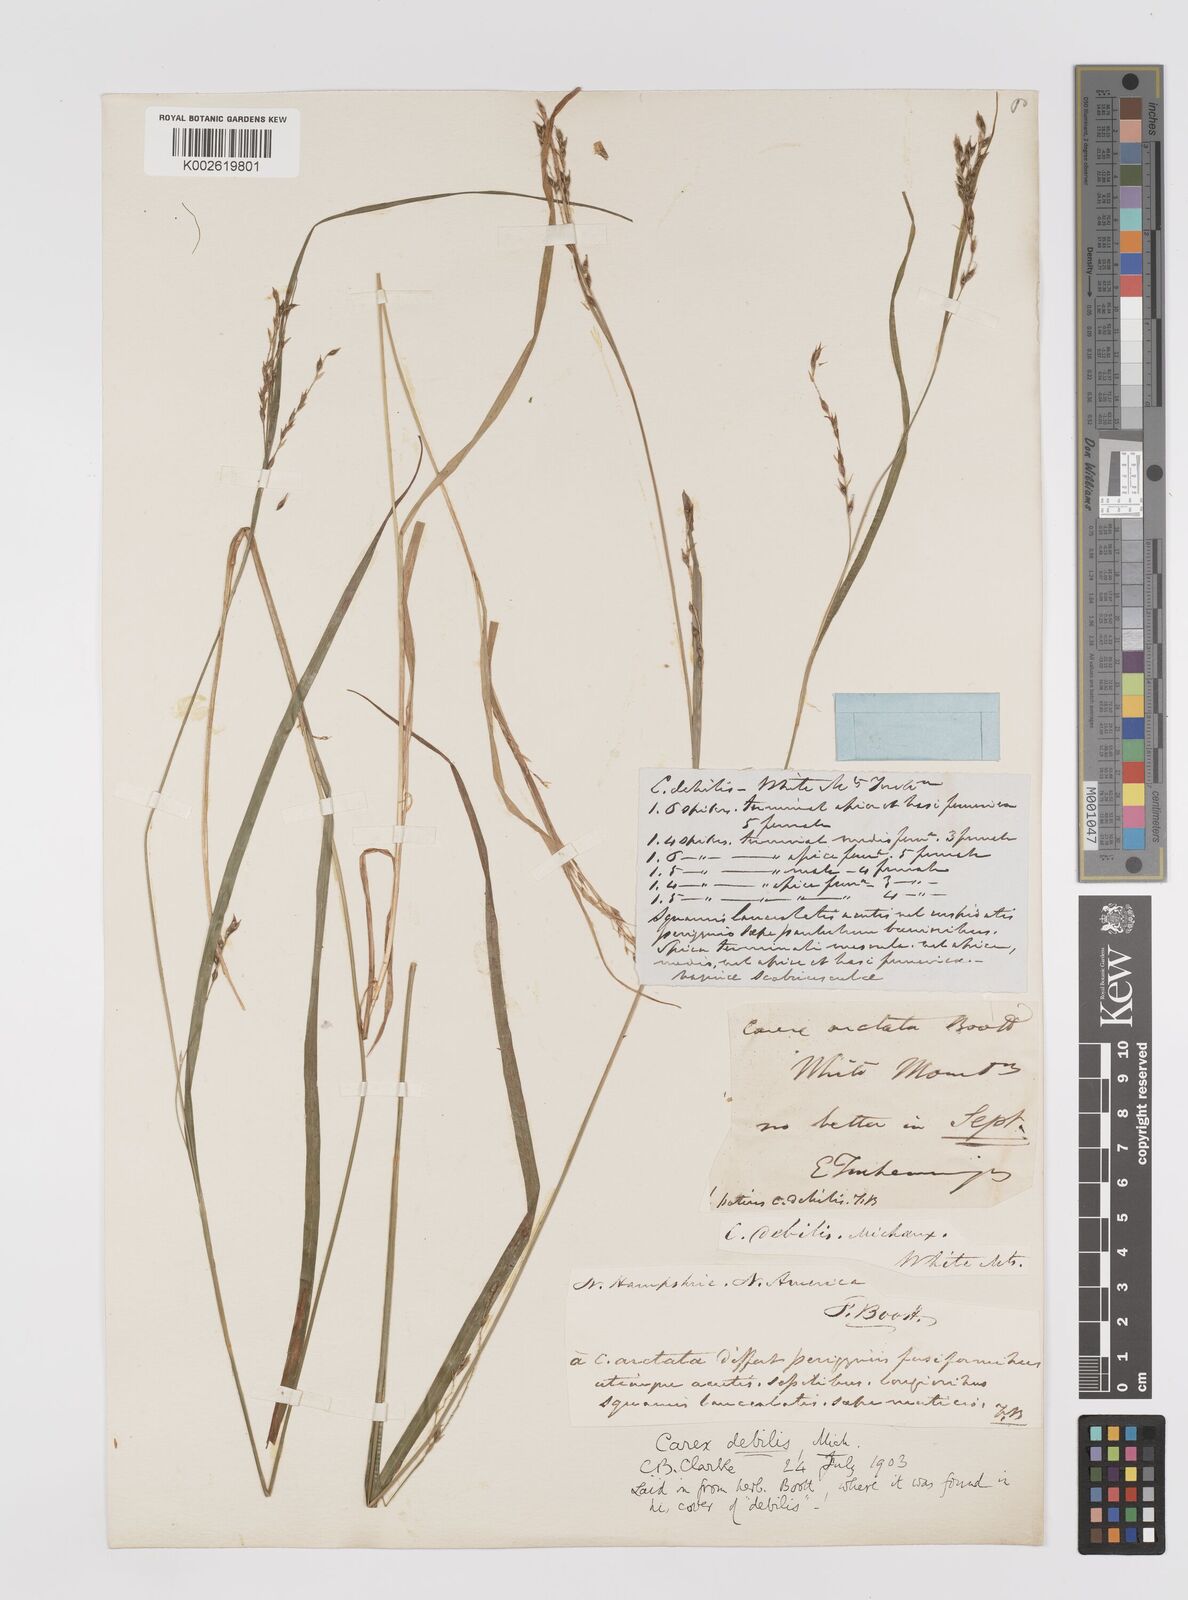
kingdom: Plantae
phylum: Tracheophyta
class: Liliopsida
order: Poales
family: Cyperaceae
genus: Carex
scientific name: Carex debilis
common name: White-edge sedge
